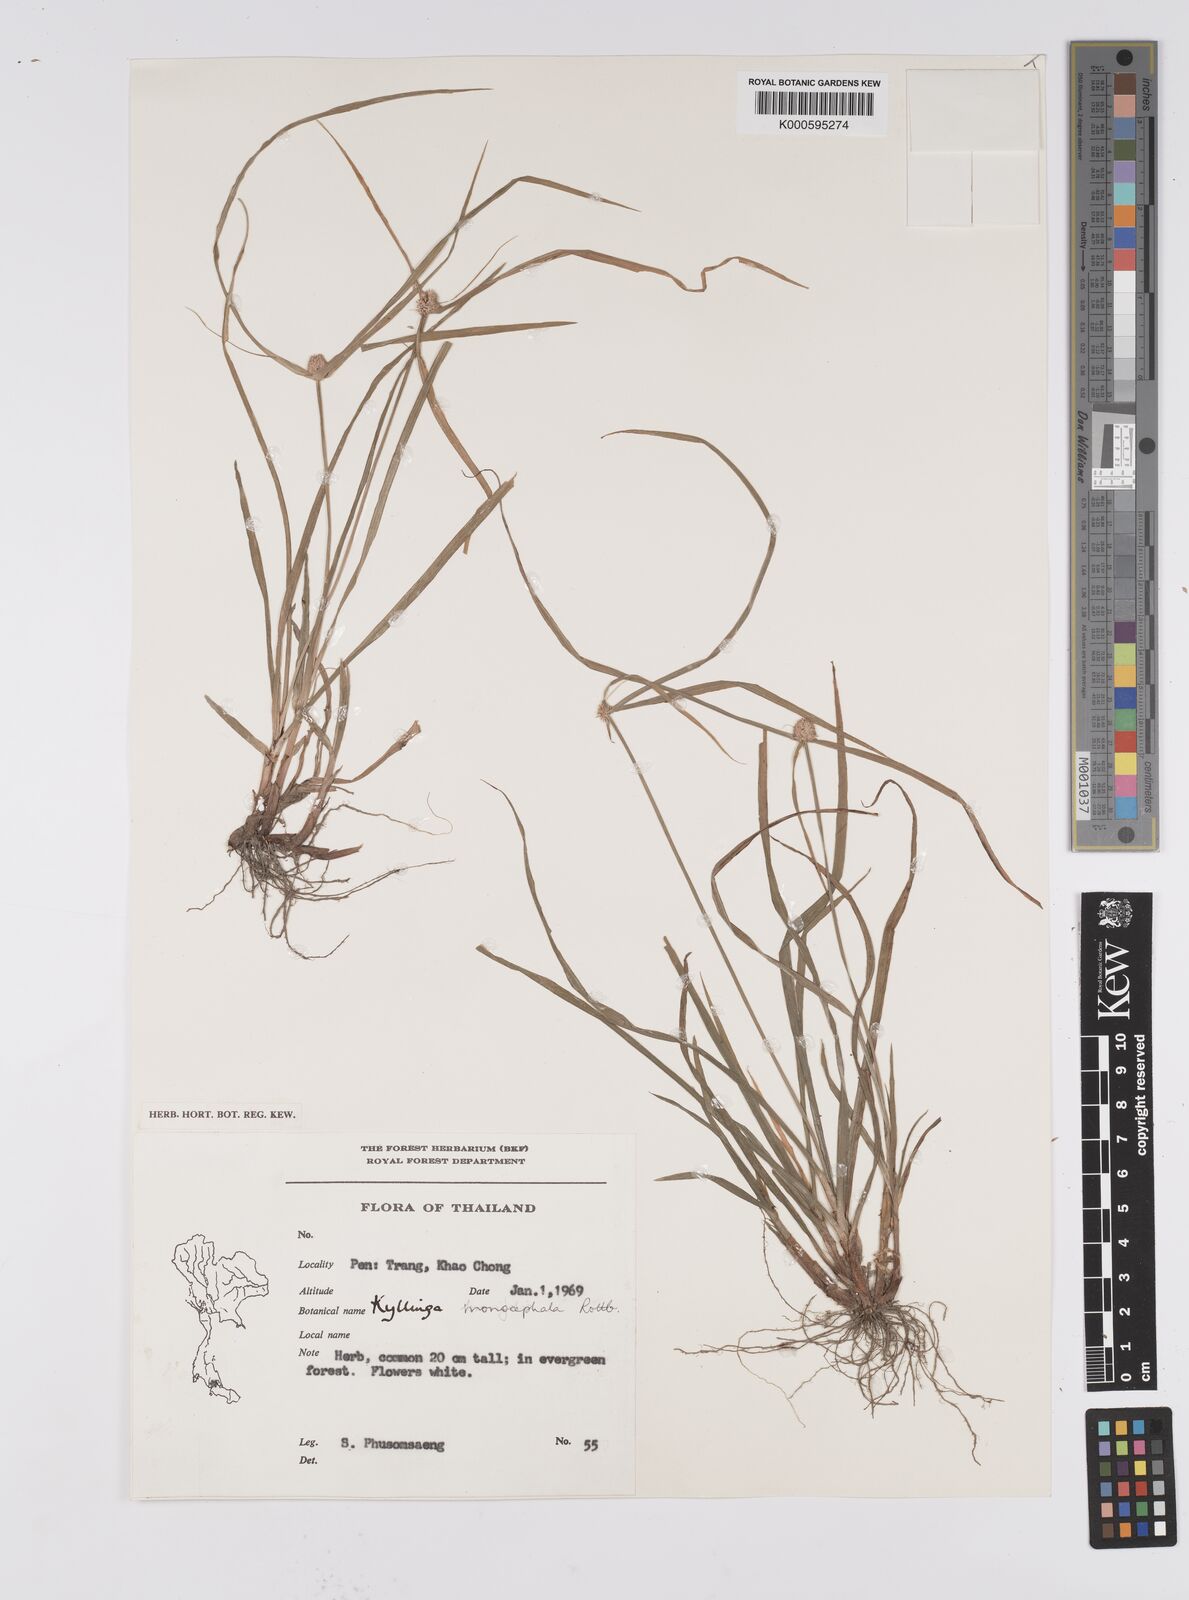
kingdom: Plantae
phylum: Tracheophyta
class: Liliopsida
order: Poales
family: Cyperaceae
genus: Cyperus
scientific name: Cyperus mindorensis
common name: Flatsedge
